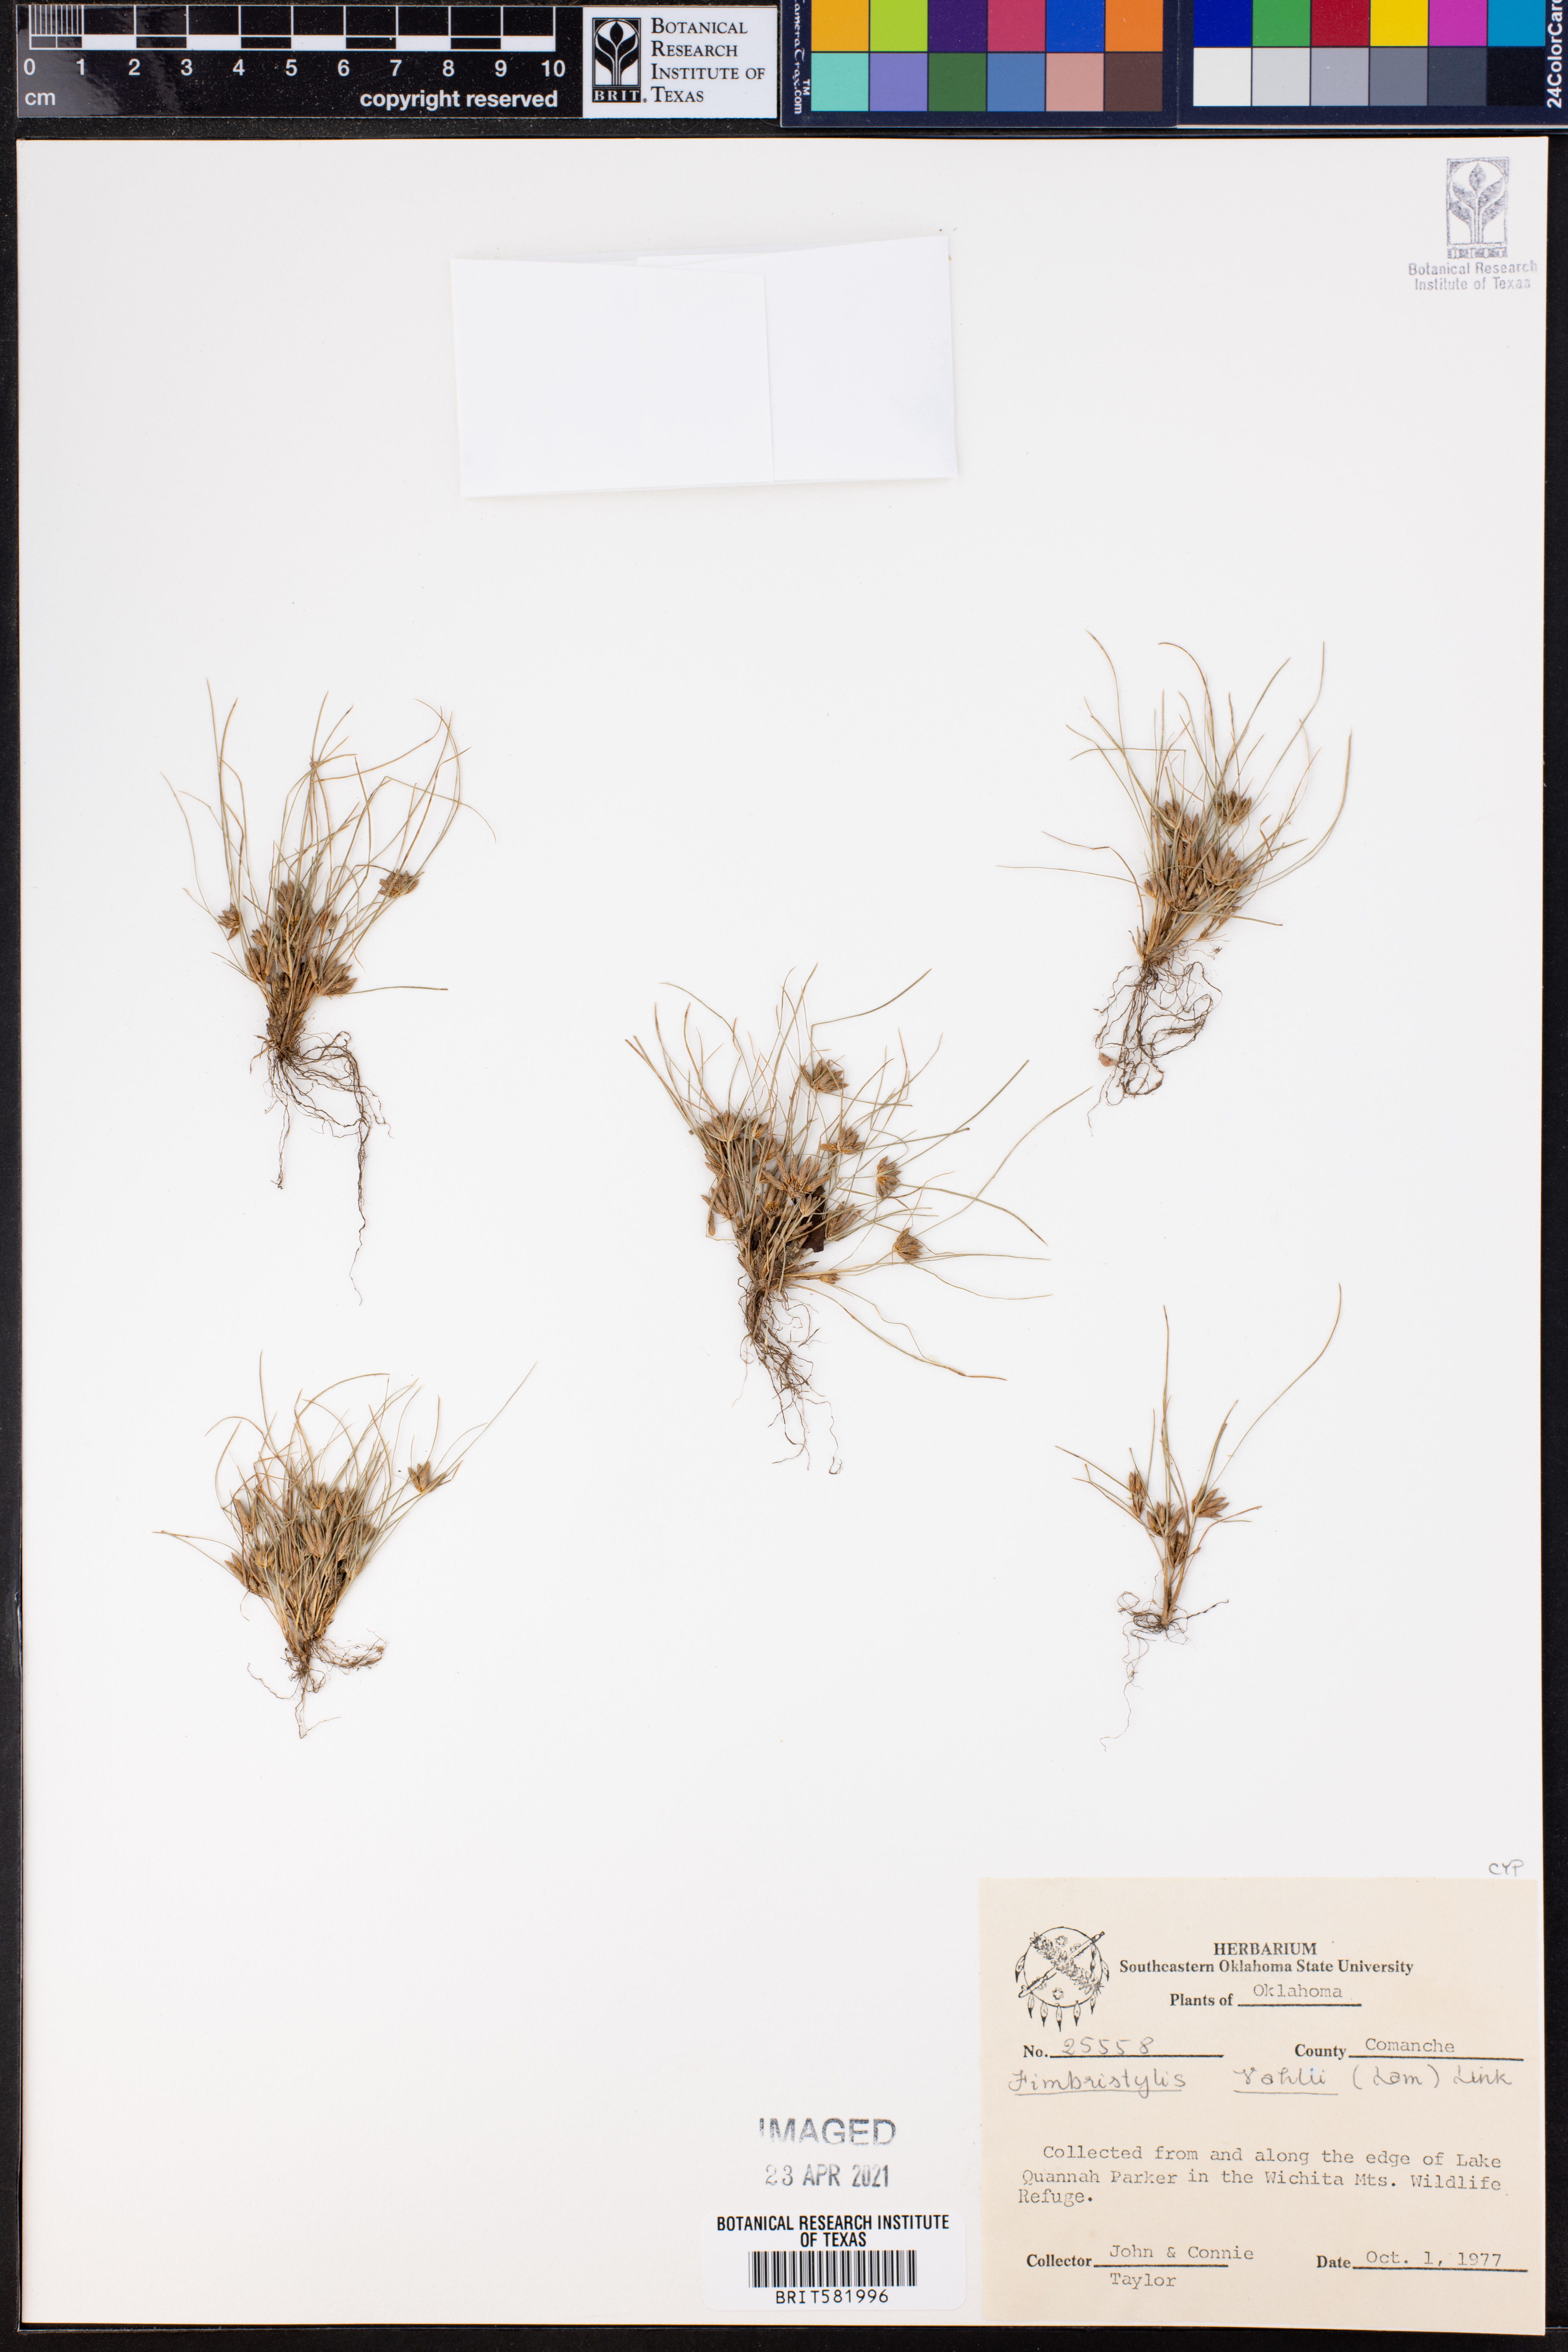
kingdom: Plantae
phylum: Tracheophyta
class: Liliopsida
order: Poales
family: Cyperaceae
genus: Fimbristylis
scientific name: Fimbristylis vahlii
